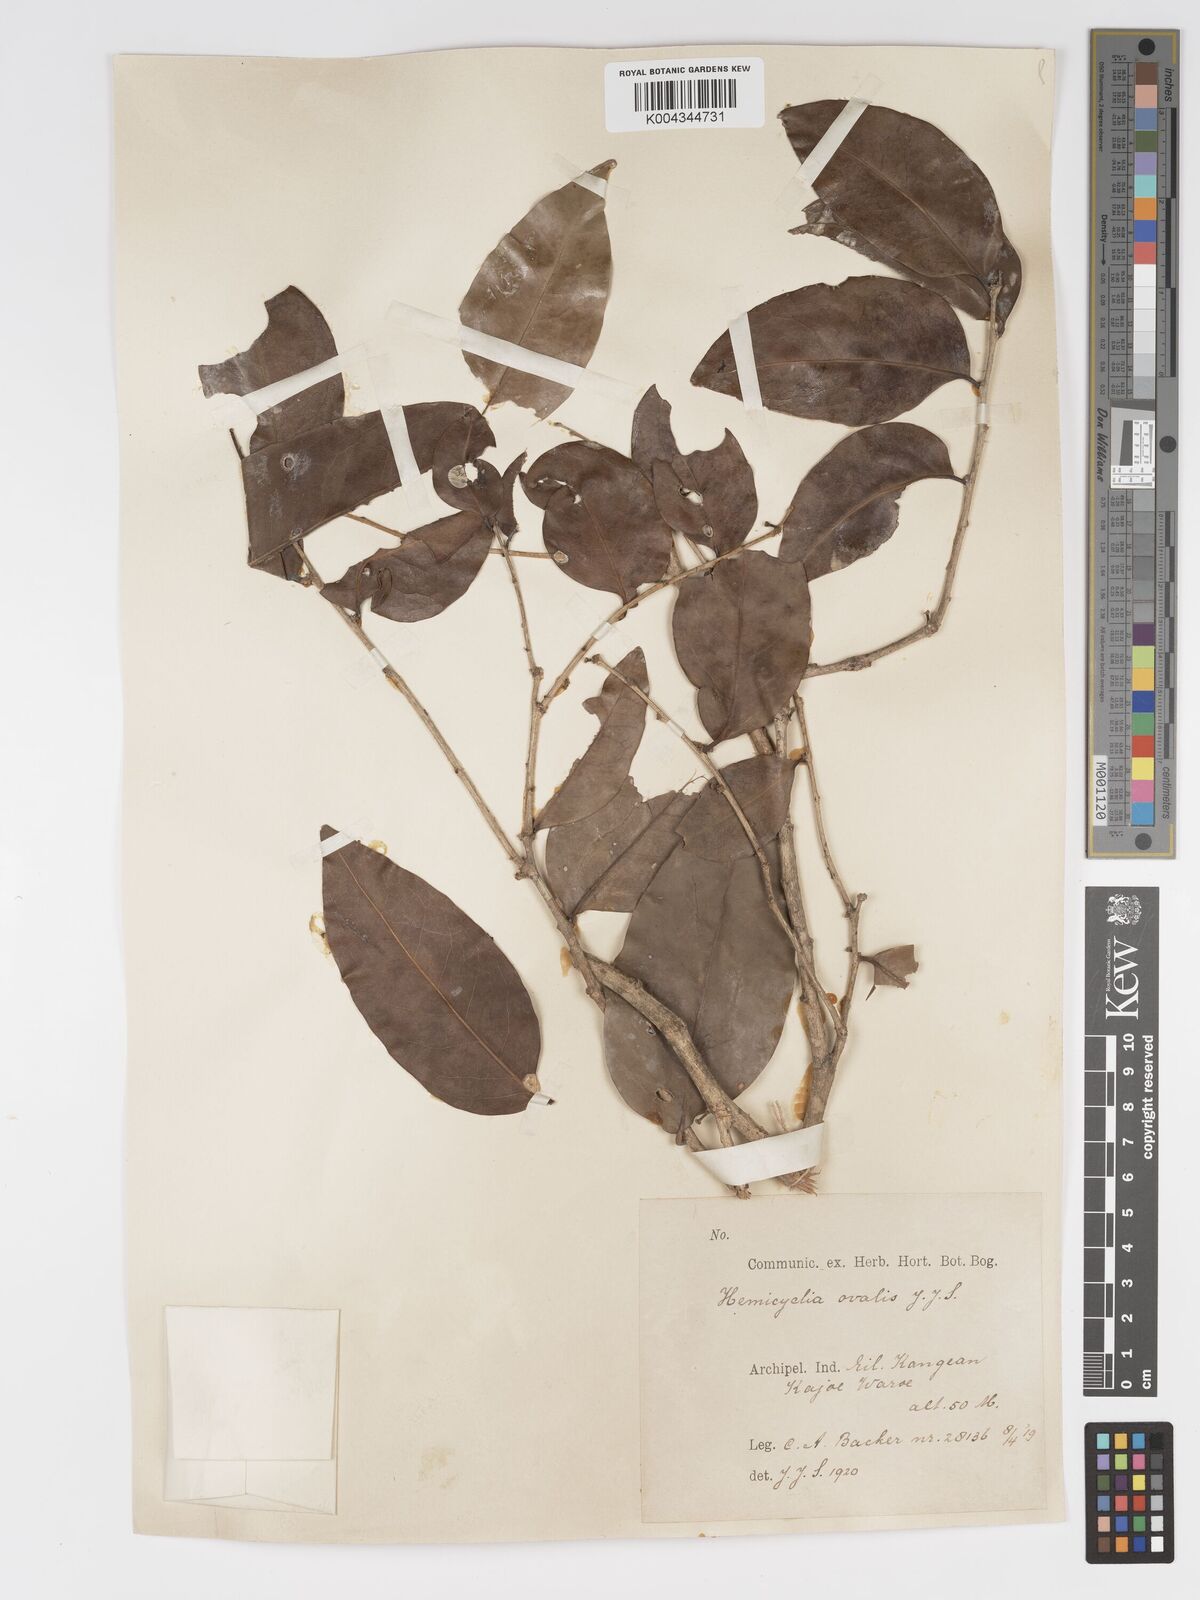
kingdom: Plantae
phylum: Tracheophyta
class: Magnoliopsida
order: Malpighiales
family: Putranjivaceae
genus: Drypetes
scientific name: Drypetes ovalis
